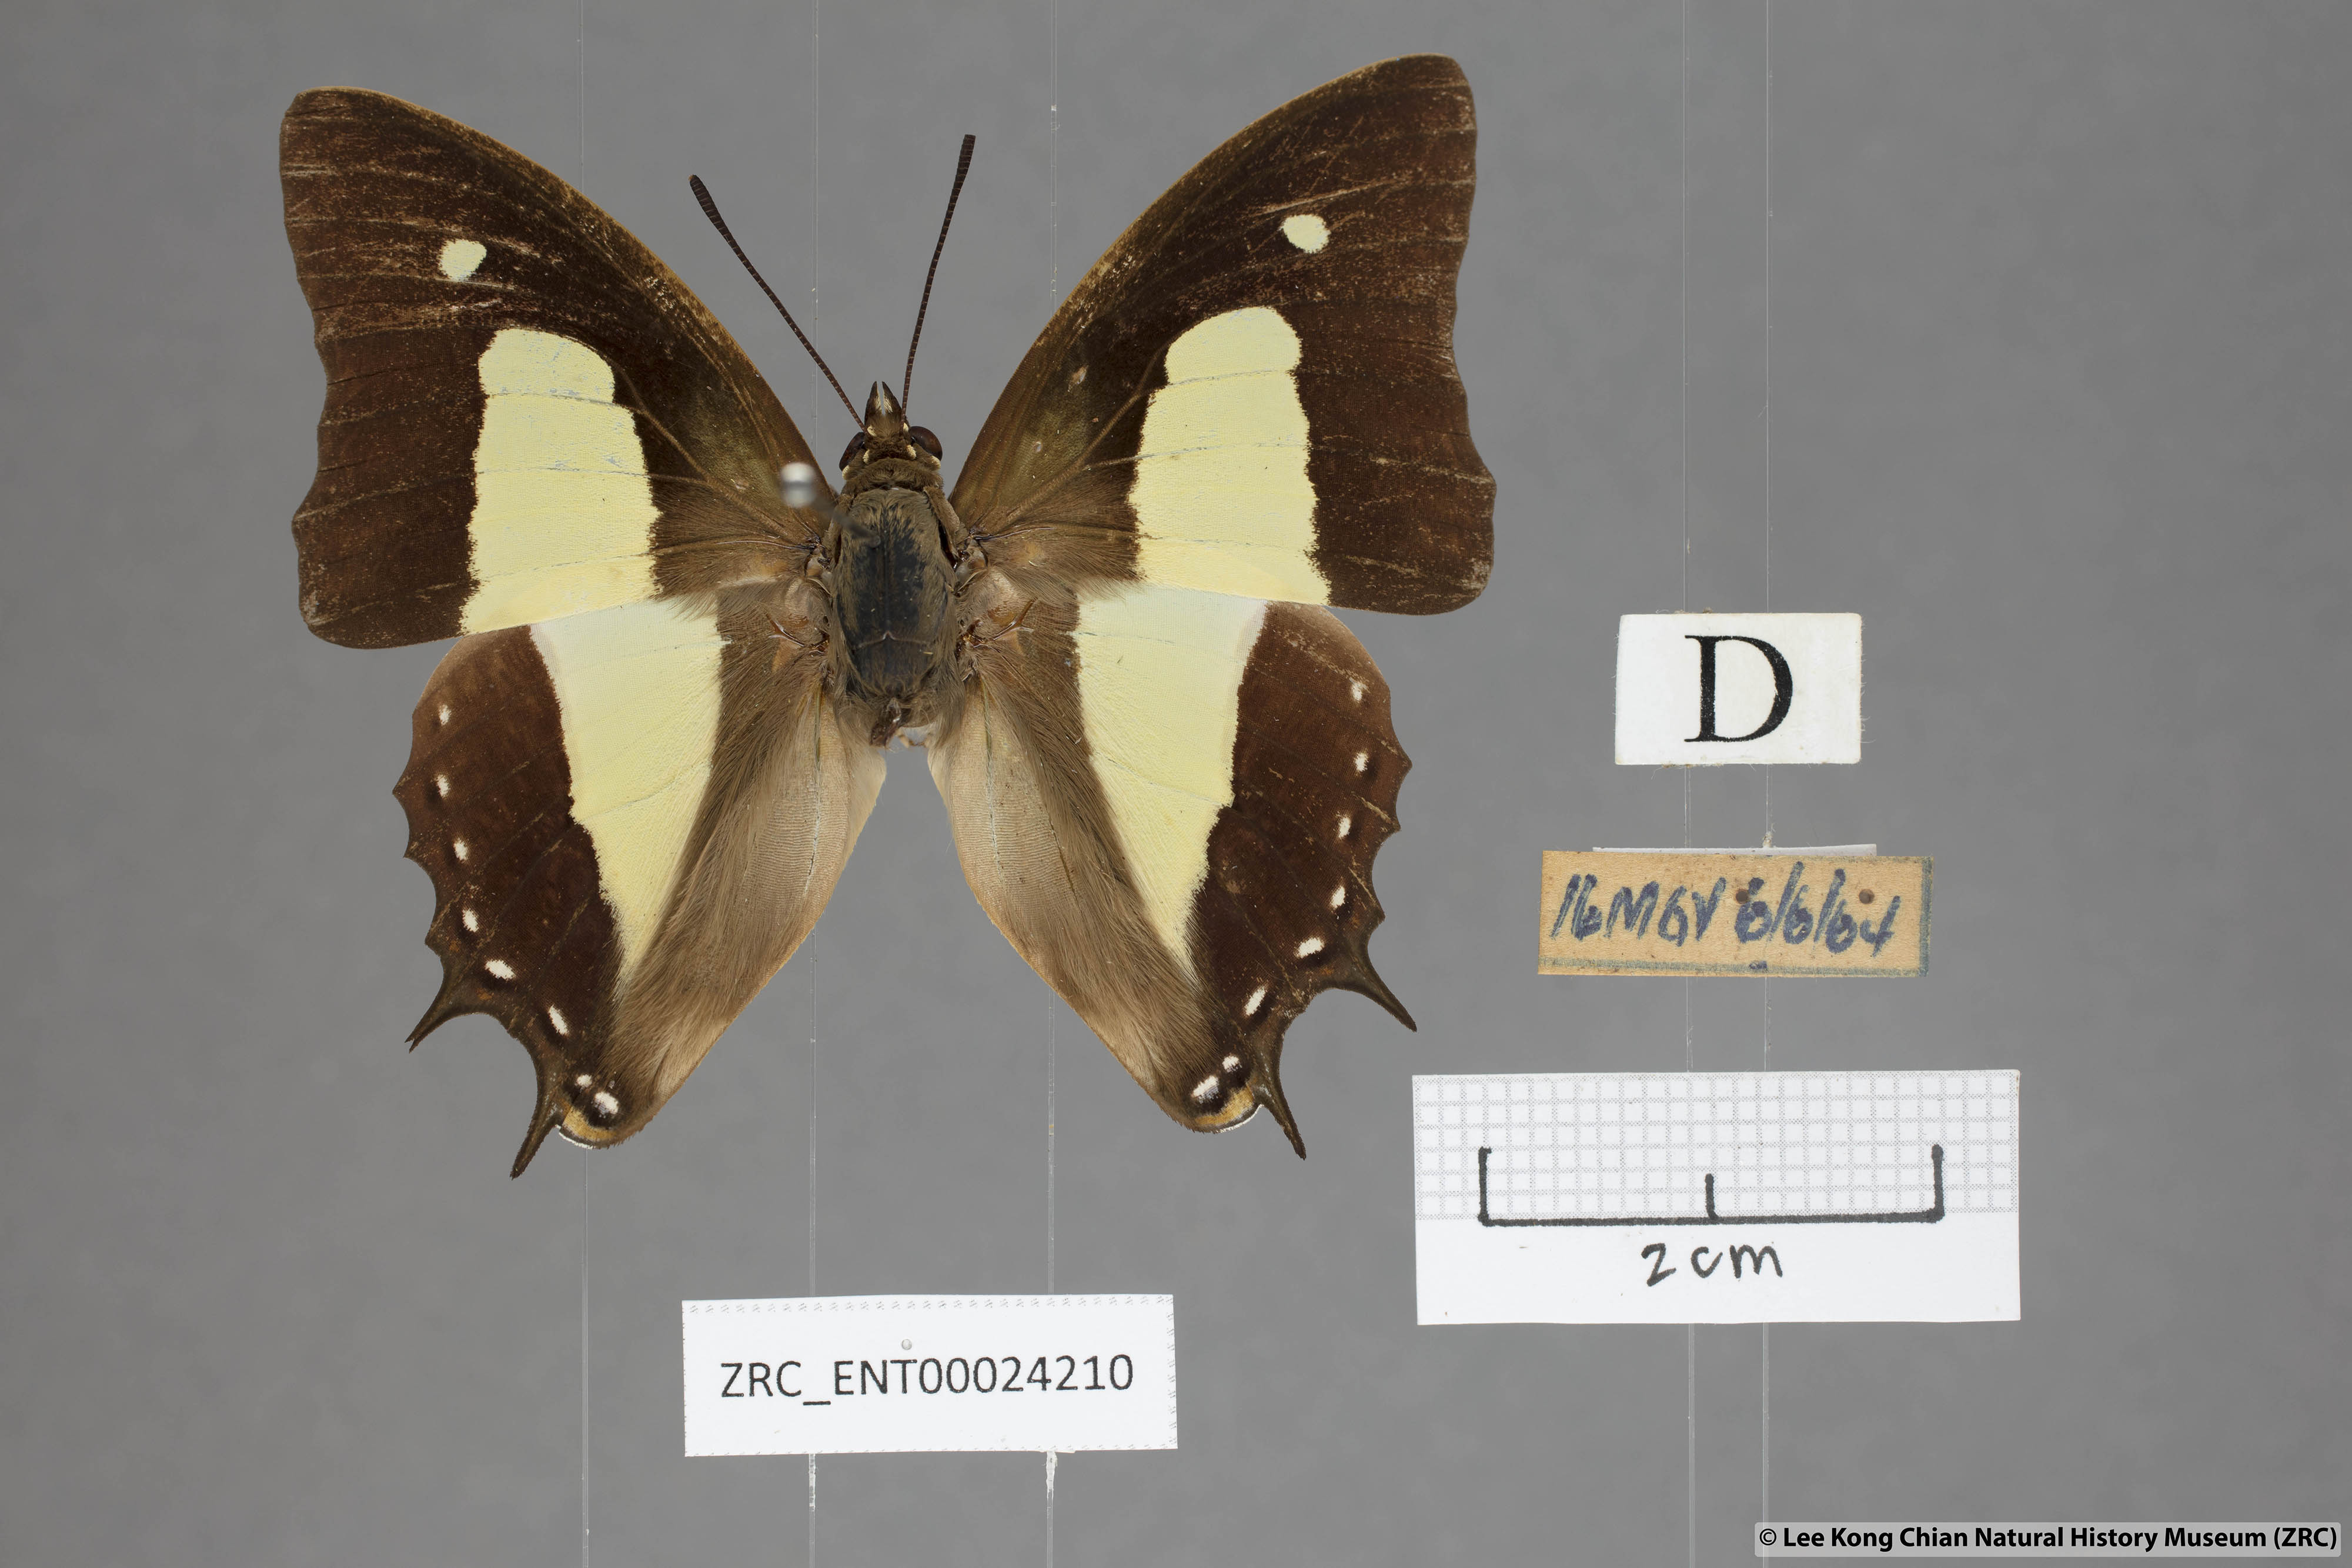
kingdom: Animalia
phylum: Arthropoda
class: Insecta
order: Lepidoptera
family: Nymphalidae
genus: Polyura
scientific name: Polyura athamas
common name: Common nawab
